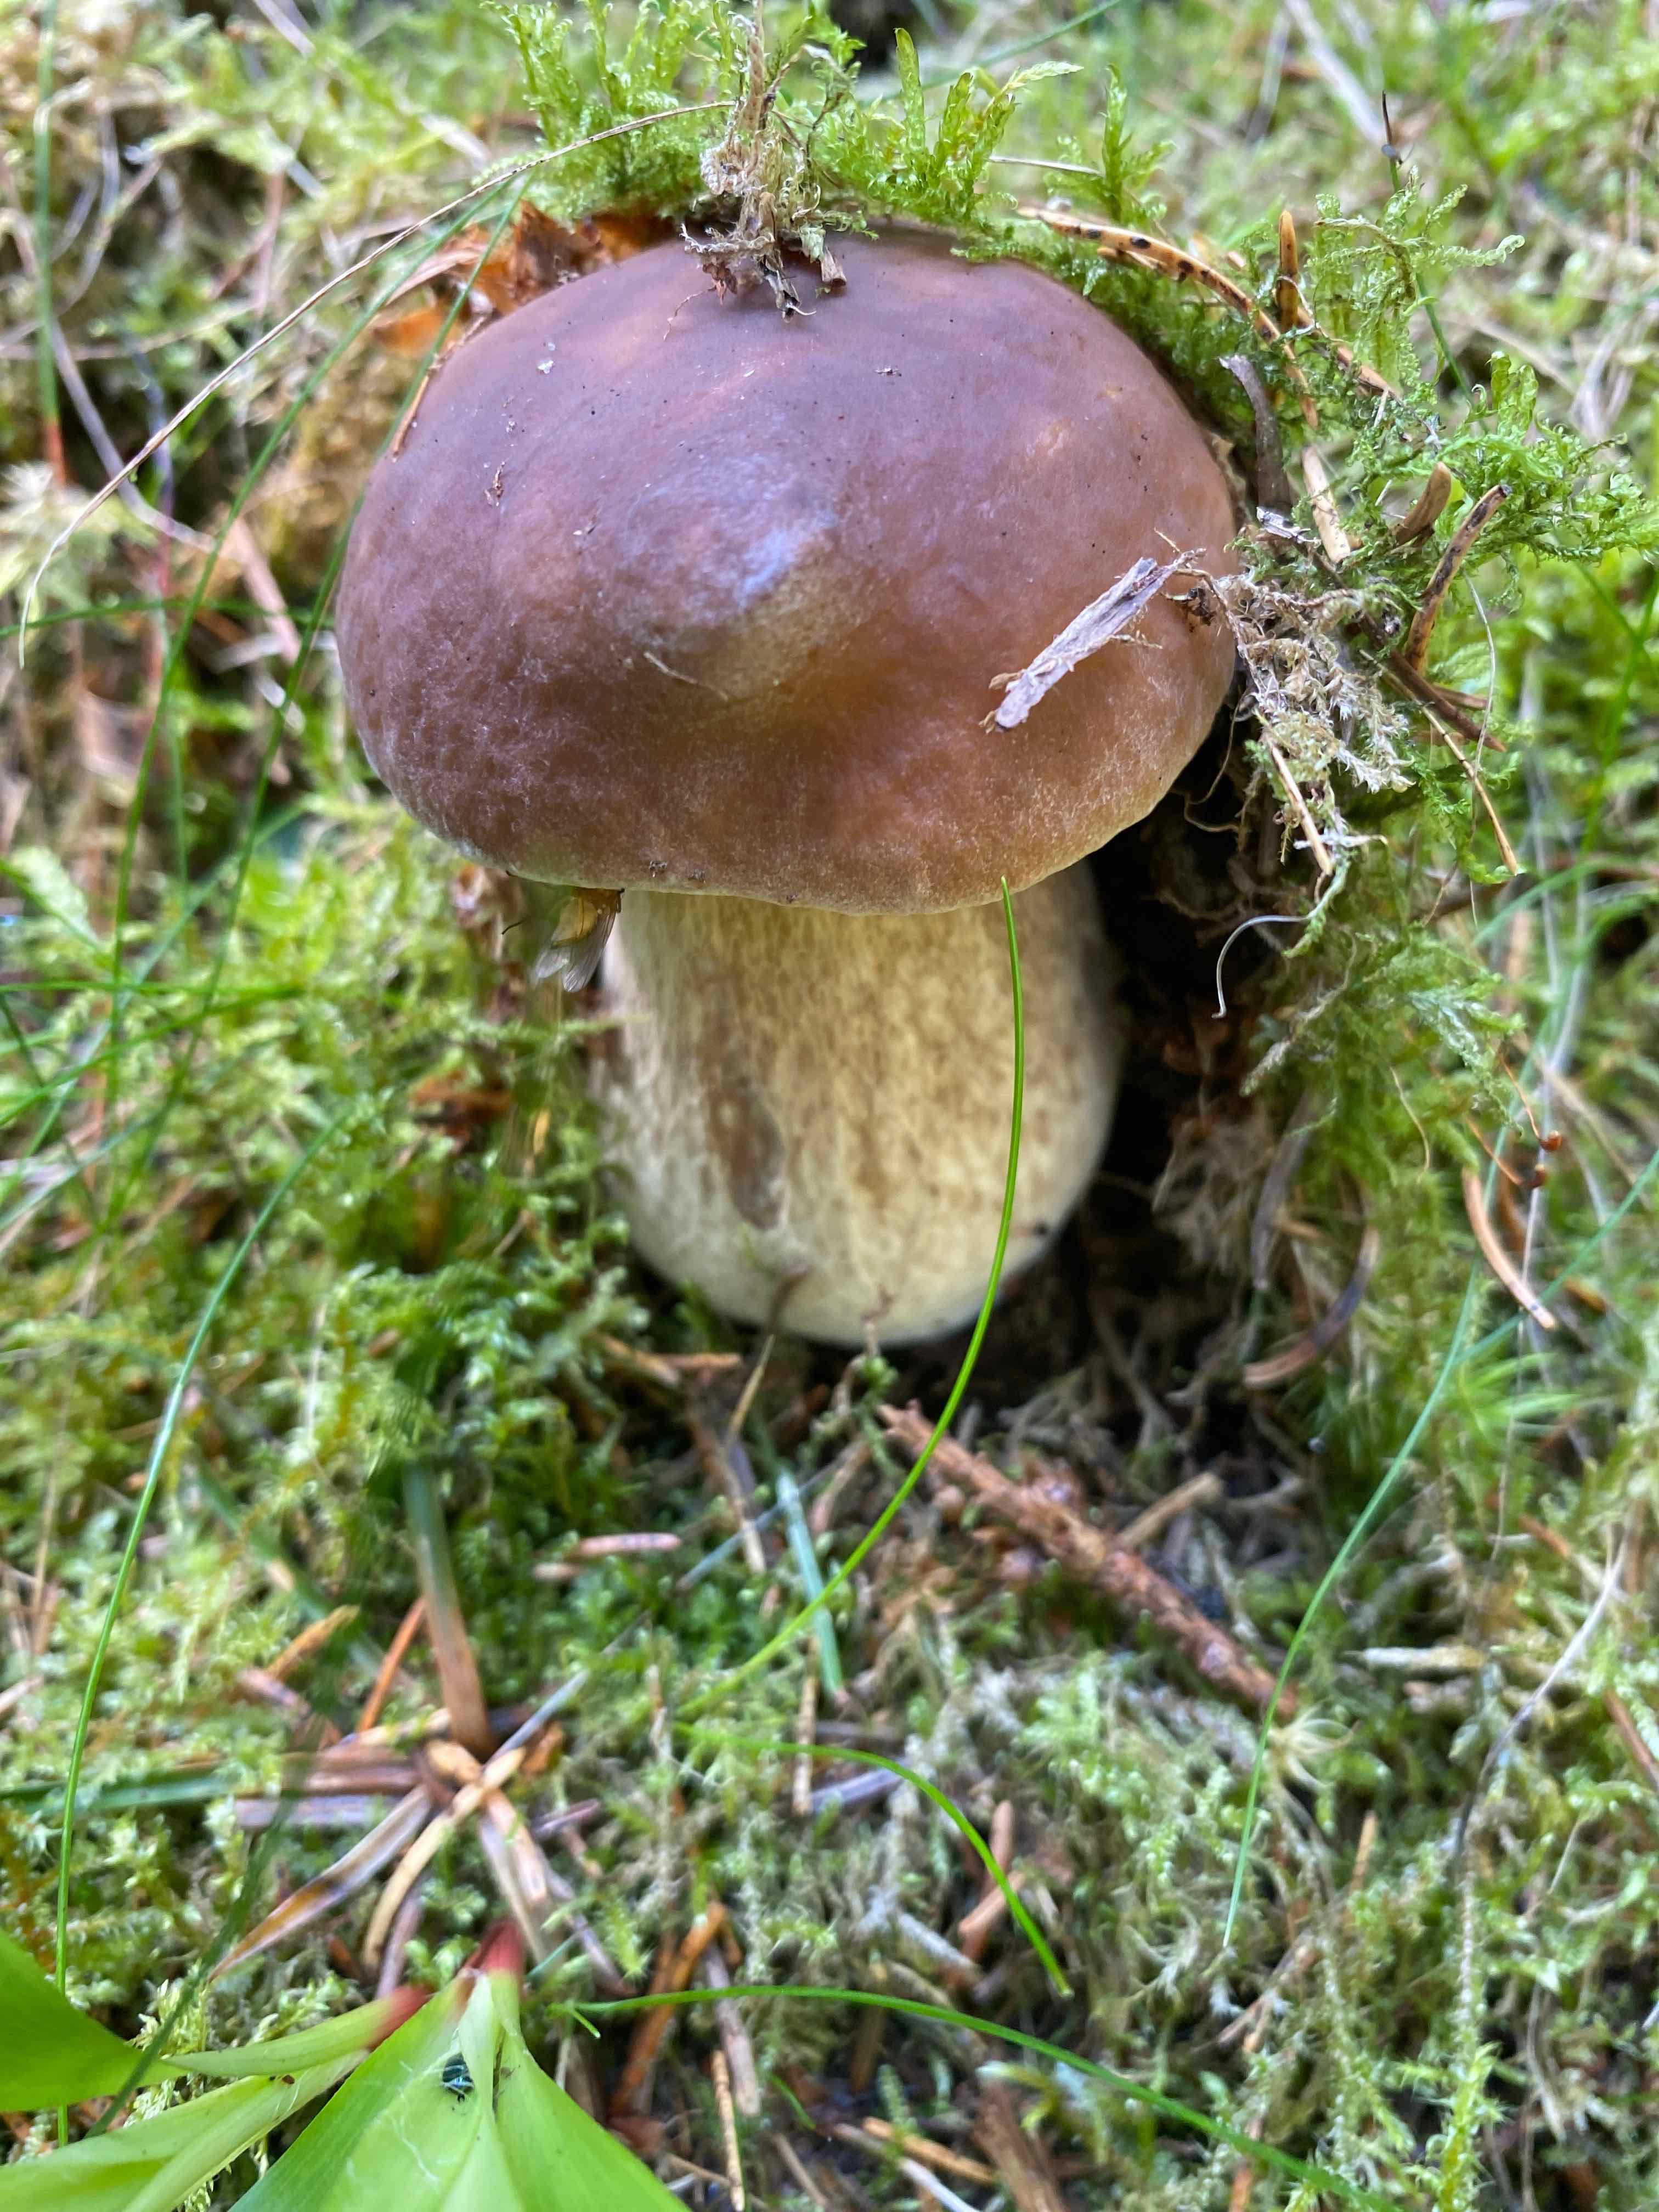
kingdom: Fungi
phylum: Basidiomycota
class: Agaricomycetes
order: Boletales
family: Boletaceae
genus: Boletus
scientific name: Boletus edulis
